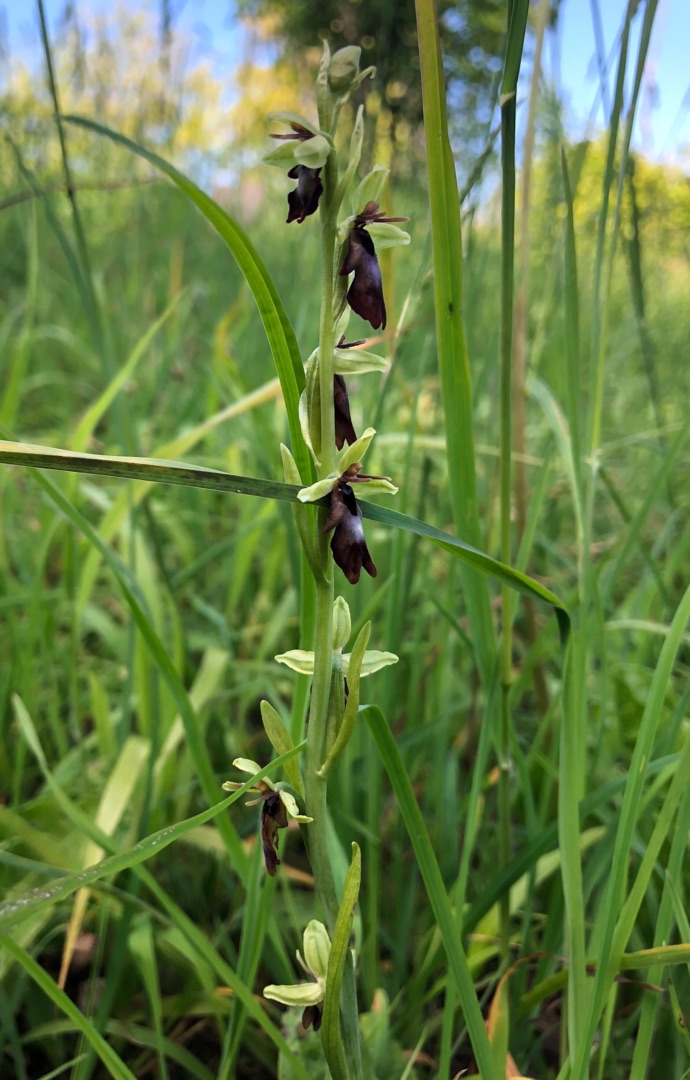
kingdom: Plantae
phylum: Tracheophyta
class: Liliopsida
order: Asparagales
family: Orchidaceae
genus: Ophrys
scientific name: Ophrys insectifera
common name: Flueblomst
